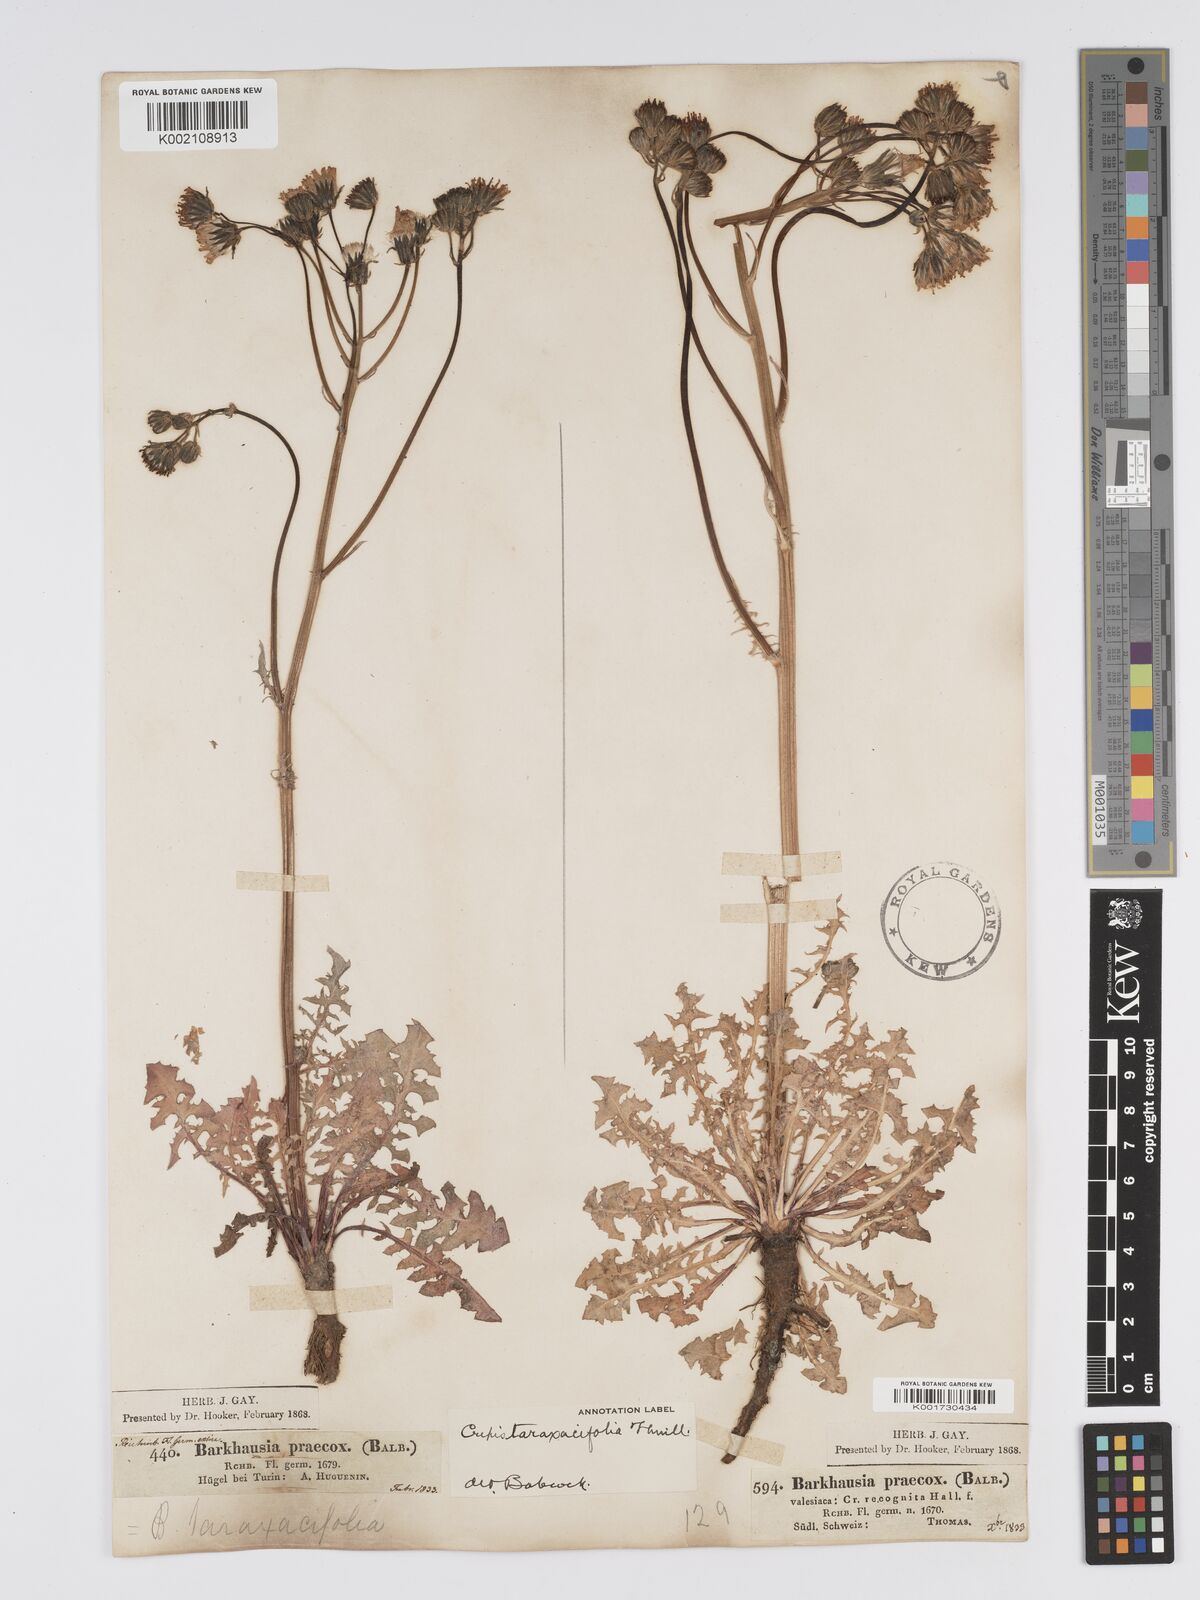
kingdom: Plantae
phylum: Tracheophyta
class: Magnoliopsida
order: Asterales
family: Asteraceae
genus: Crepis
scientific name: Crepis vesicaria
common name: Beaked hawksbeard
